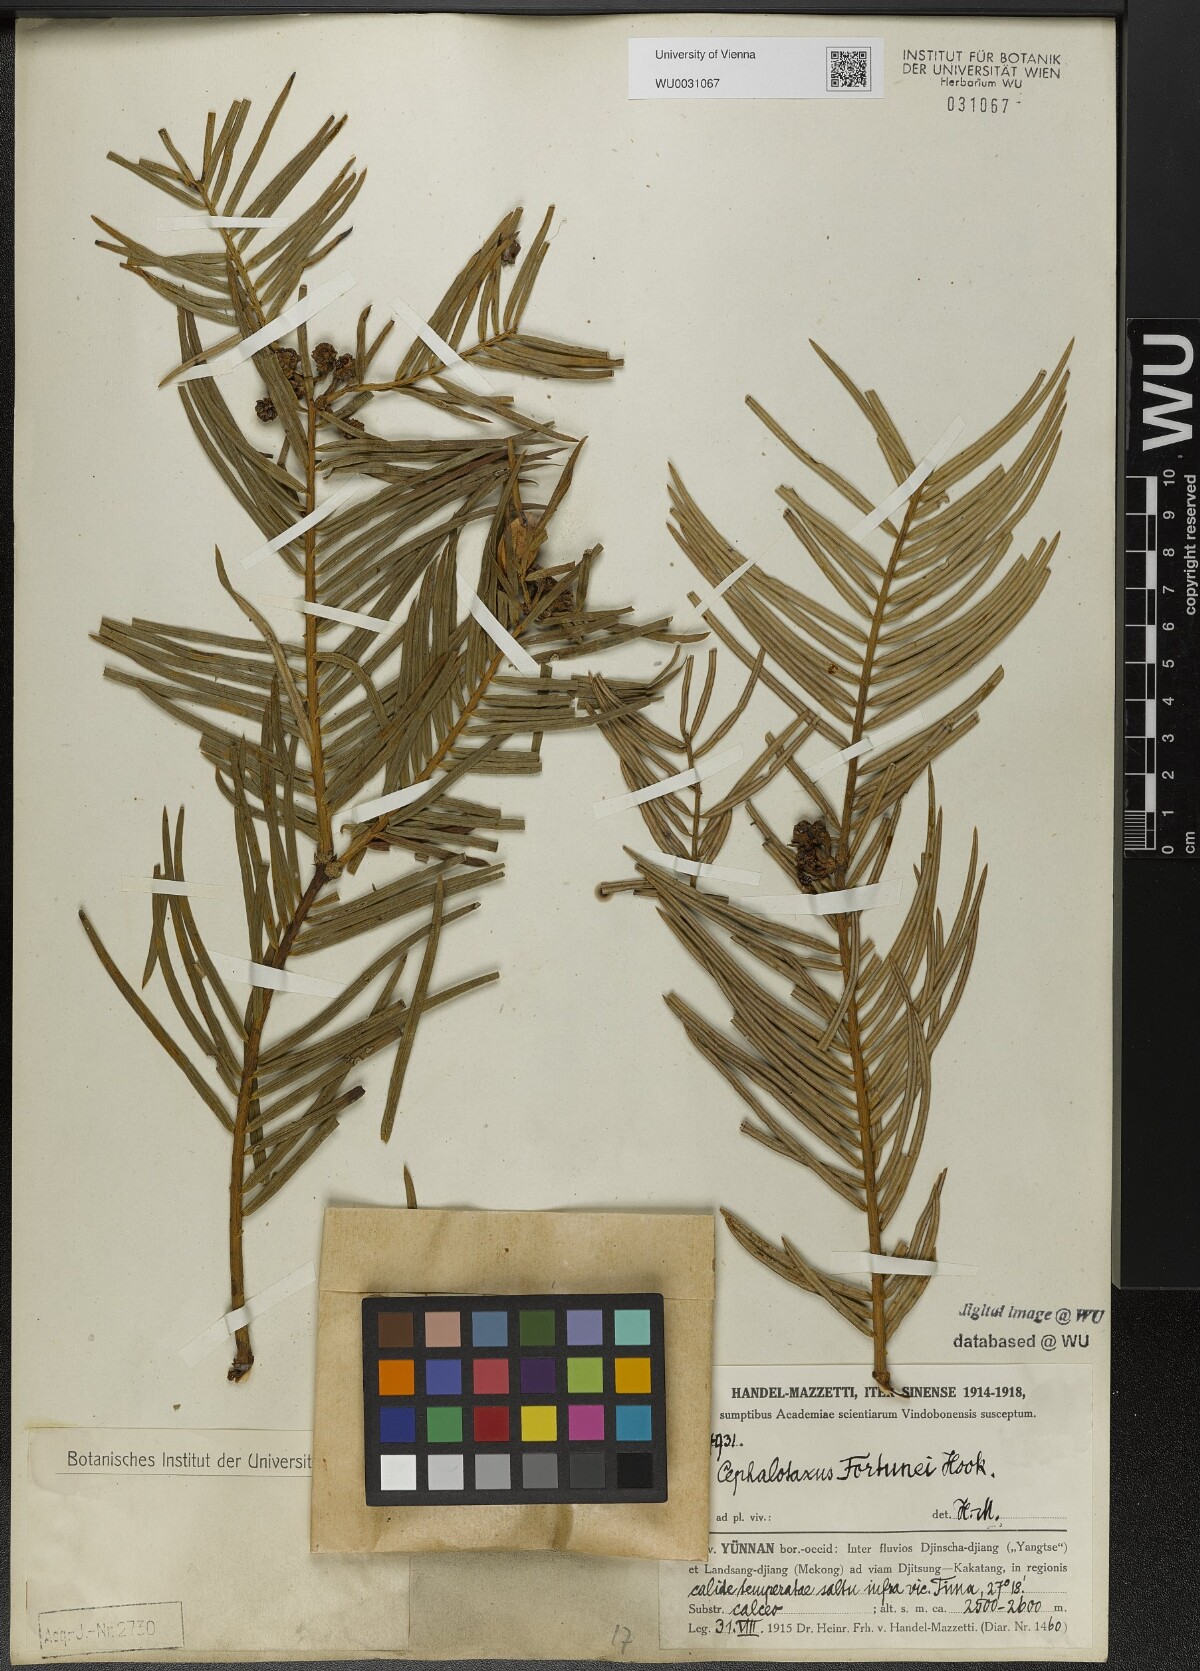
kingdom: Plantae
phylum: Tracheophyta
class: Pinopsida
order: Pinales
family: Cephalotaxaceae
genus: Cephalotaxus
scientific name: Cephalotaxus fortunei
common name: Chinese plum-yew
